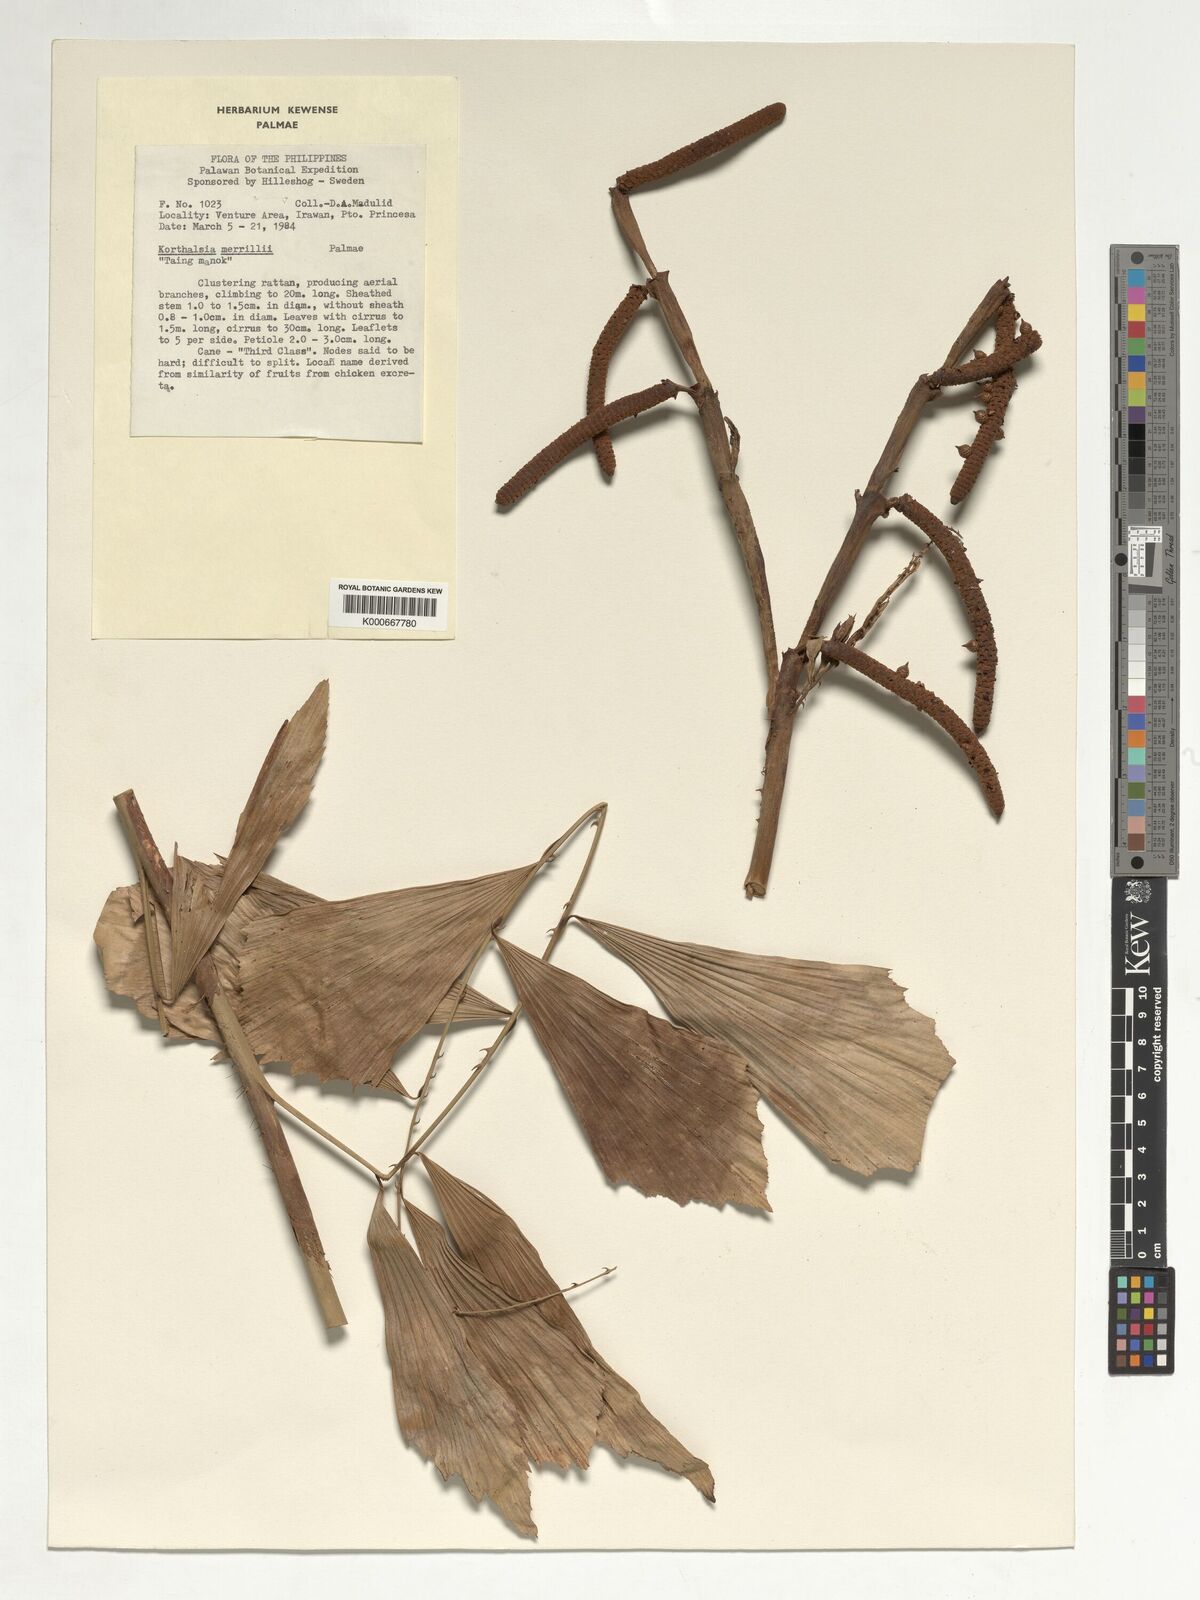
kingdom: Plantae
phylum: Tracheophyta
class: Liliopsida
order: Arecales
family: Arecaceae
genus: Korthalsia
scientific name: Korthalsia merrillii
